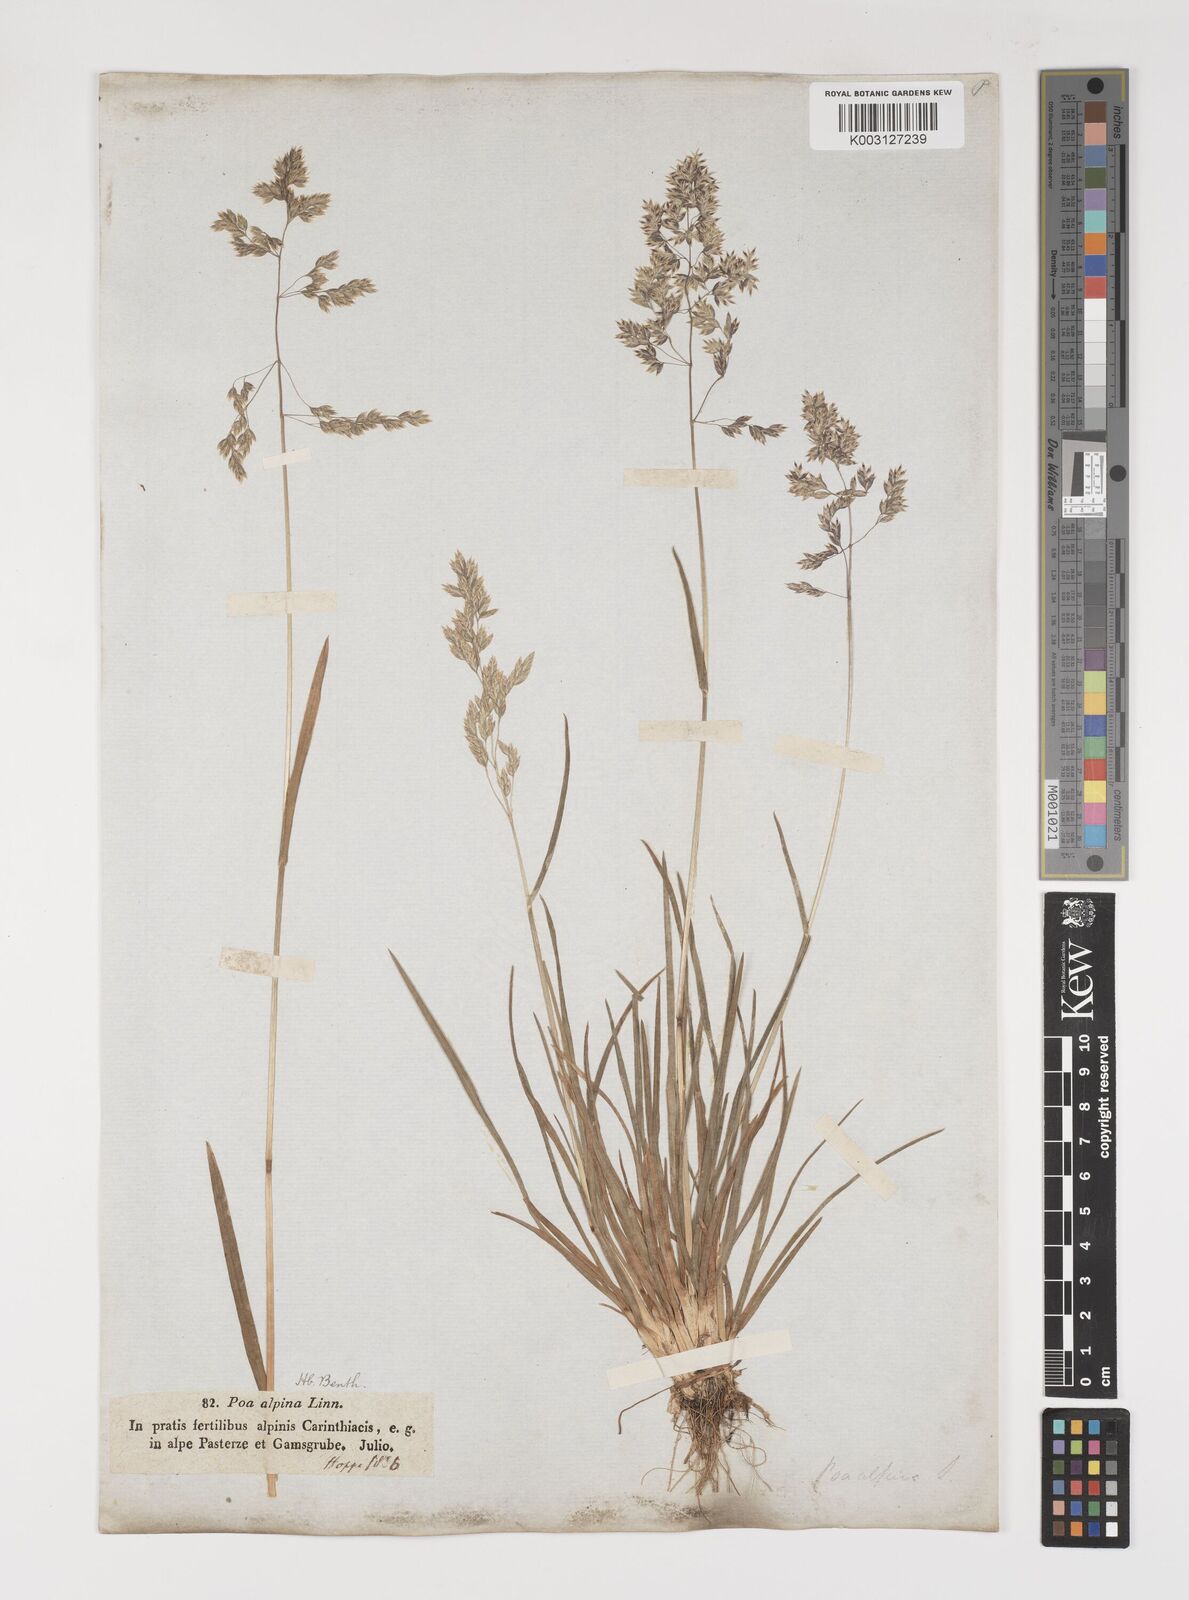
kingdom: Plantae
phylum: Tracheophyta
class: Liliopsida
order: Poales
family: Poaceae
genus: Poa
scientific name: Poa alpina
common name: Alpine bluegrass
